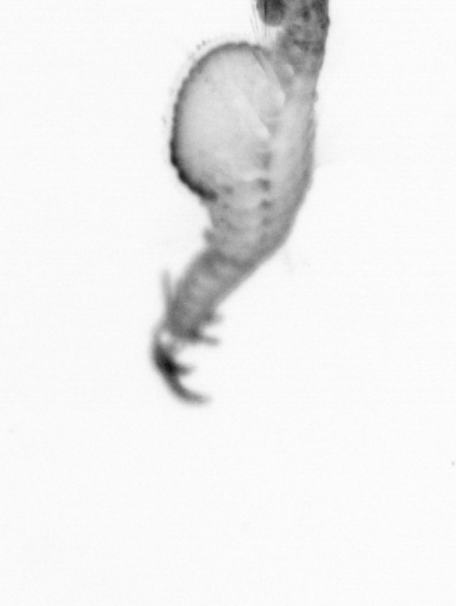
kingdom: Animalia
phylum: Annelida
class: Polychaeta
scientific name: Polychaeta
